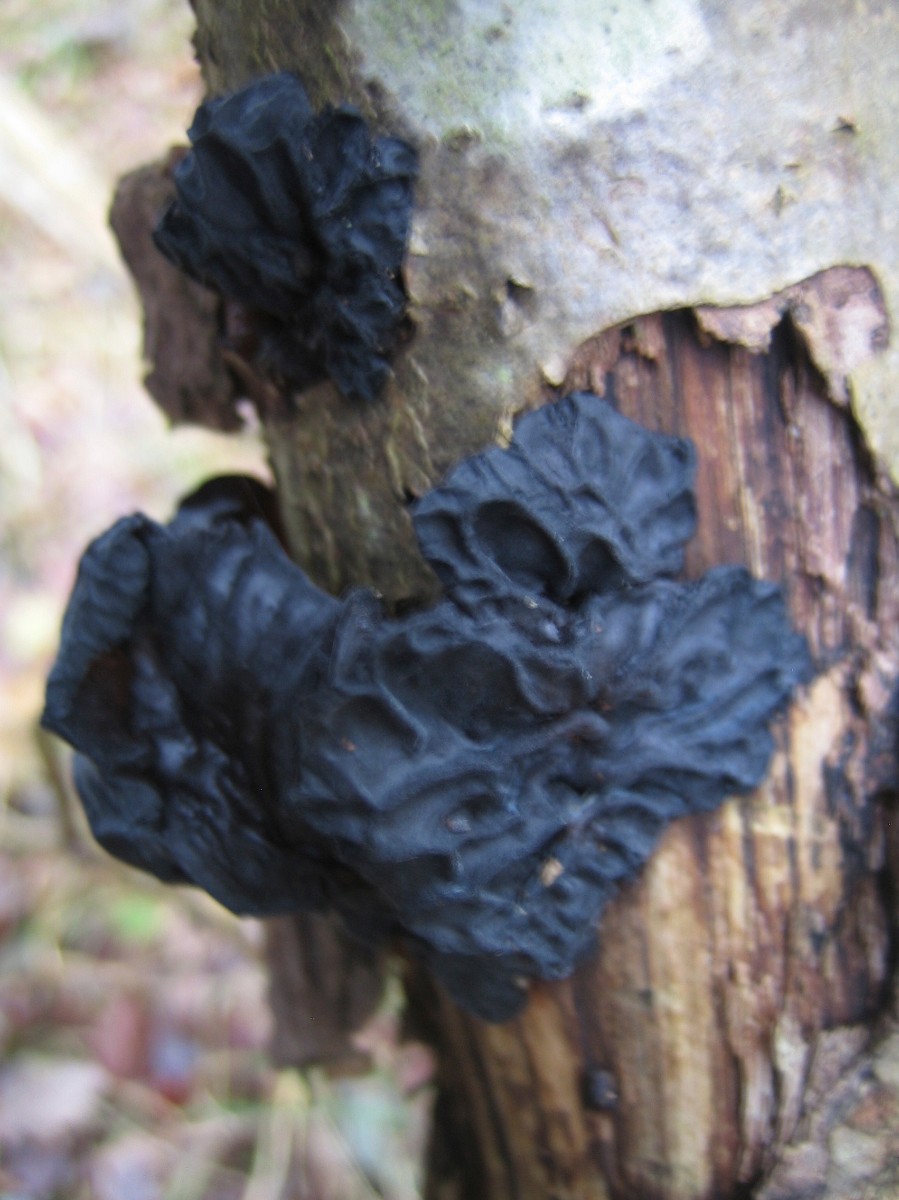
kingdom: Fungi
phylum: Basidiomycota
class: Agaricomycetes
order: Auriculariales
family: Auriculariaceae
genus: Exidia
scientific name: Exidia glandulosa
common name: ege-bævretop
